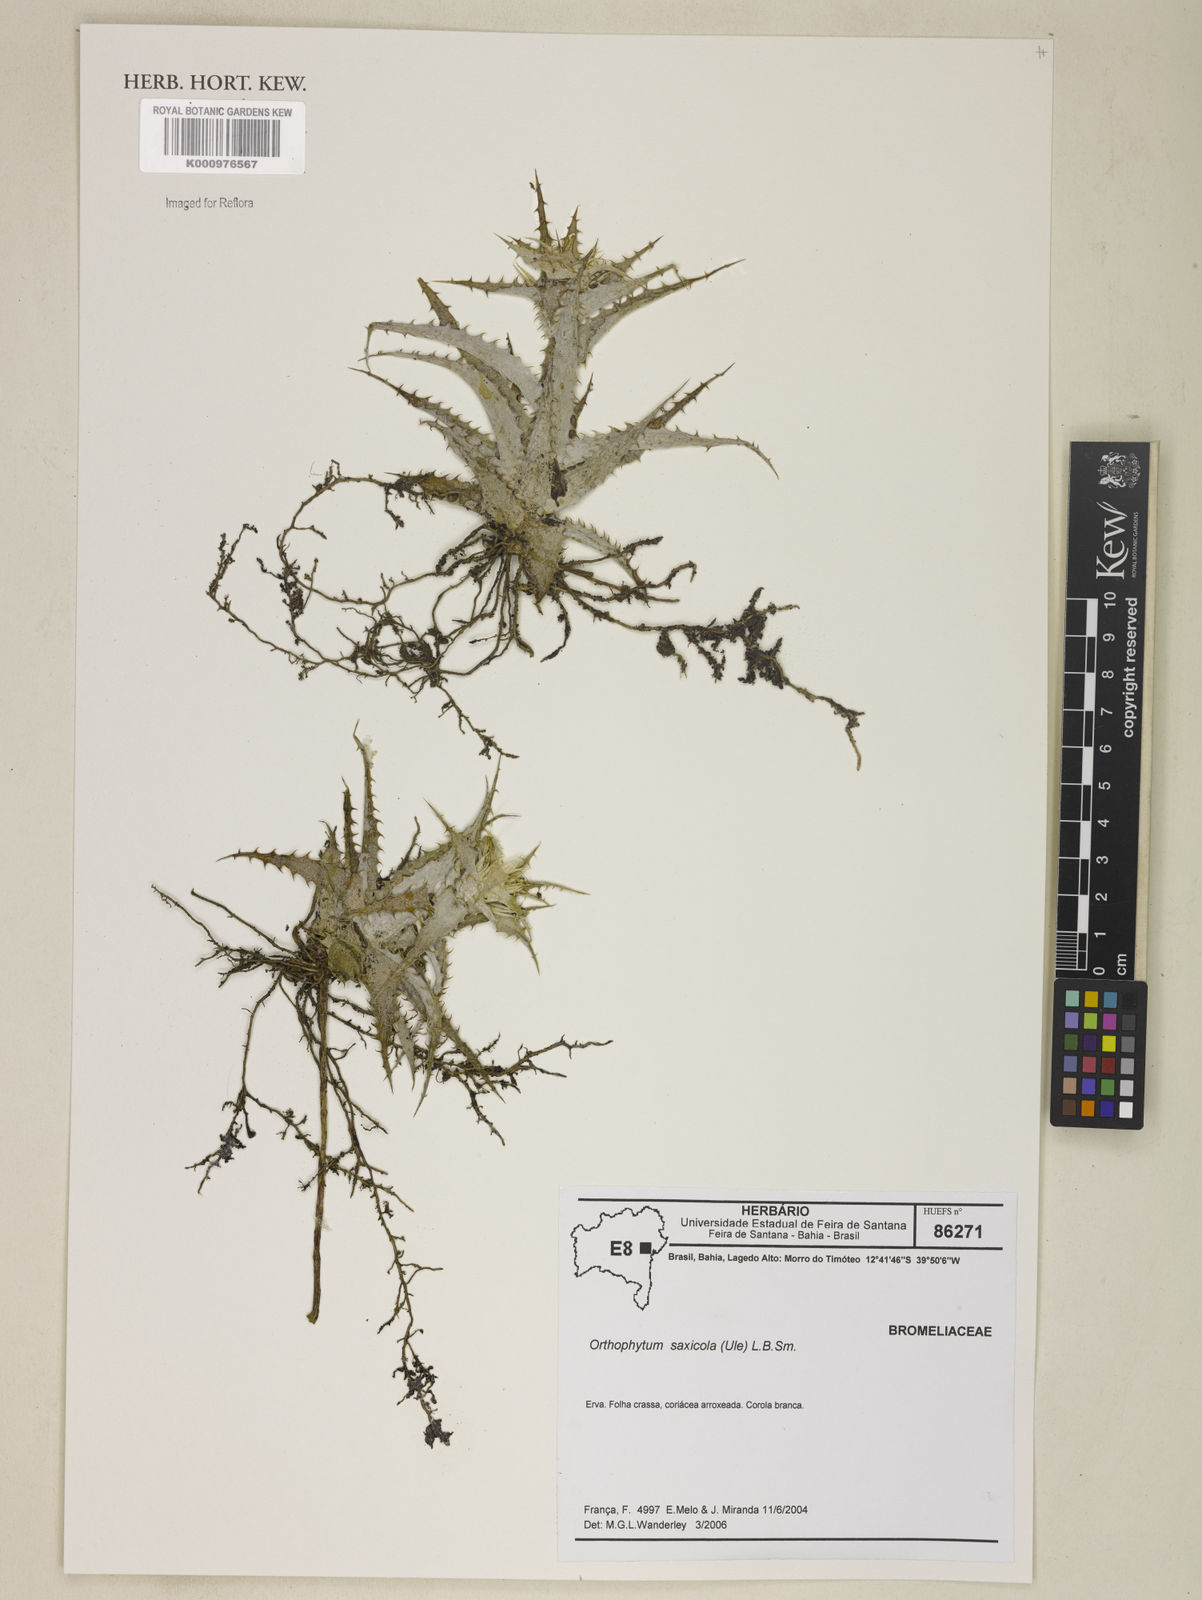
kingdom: Plantae
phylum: Tracheophyta
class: Liliopsida
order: Poales
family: Bromeliaceae
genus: Orthophytum
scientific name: Orthophytum saxicola
